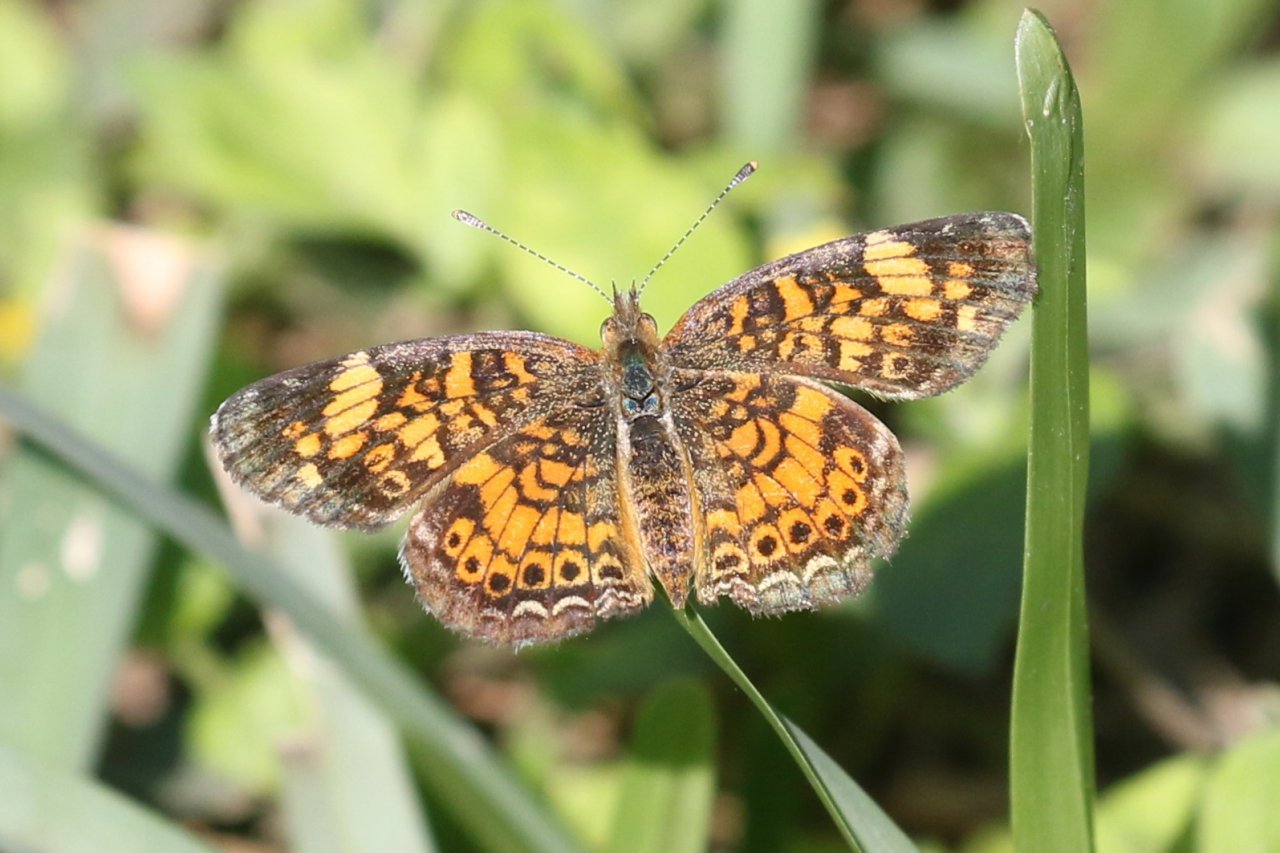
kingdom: Animalia
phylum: Arthropoda
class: Insecta
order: Lepidoptera
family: Nymphalidae
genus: Phyciodes
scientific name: Phyciodes tharos
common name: Pearl Crescent
